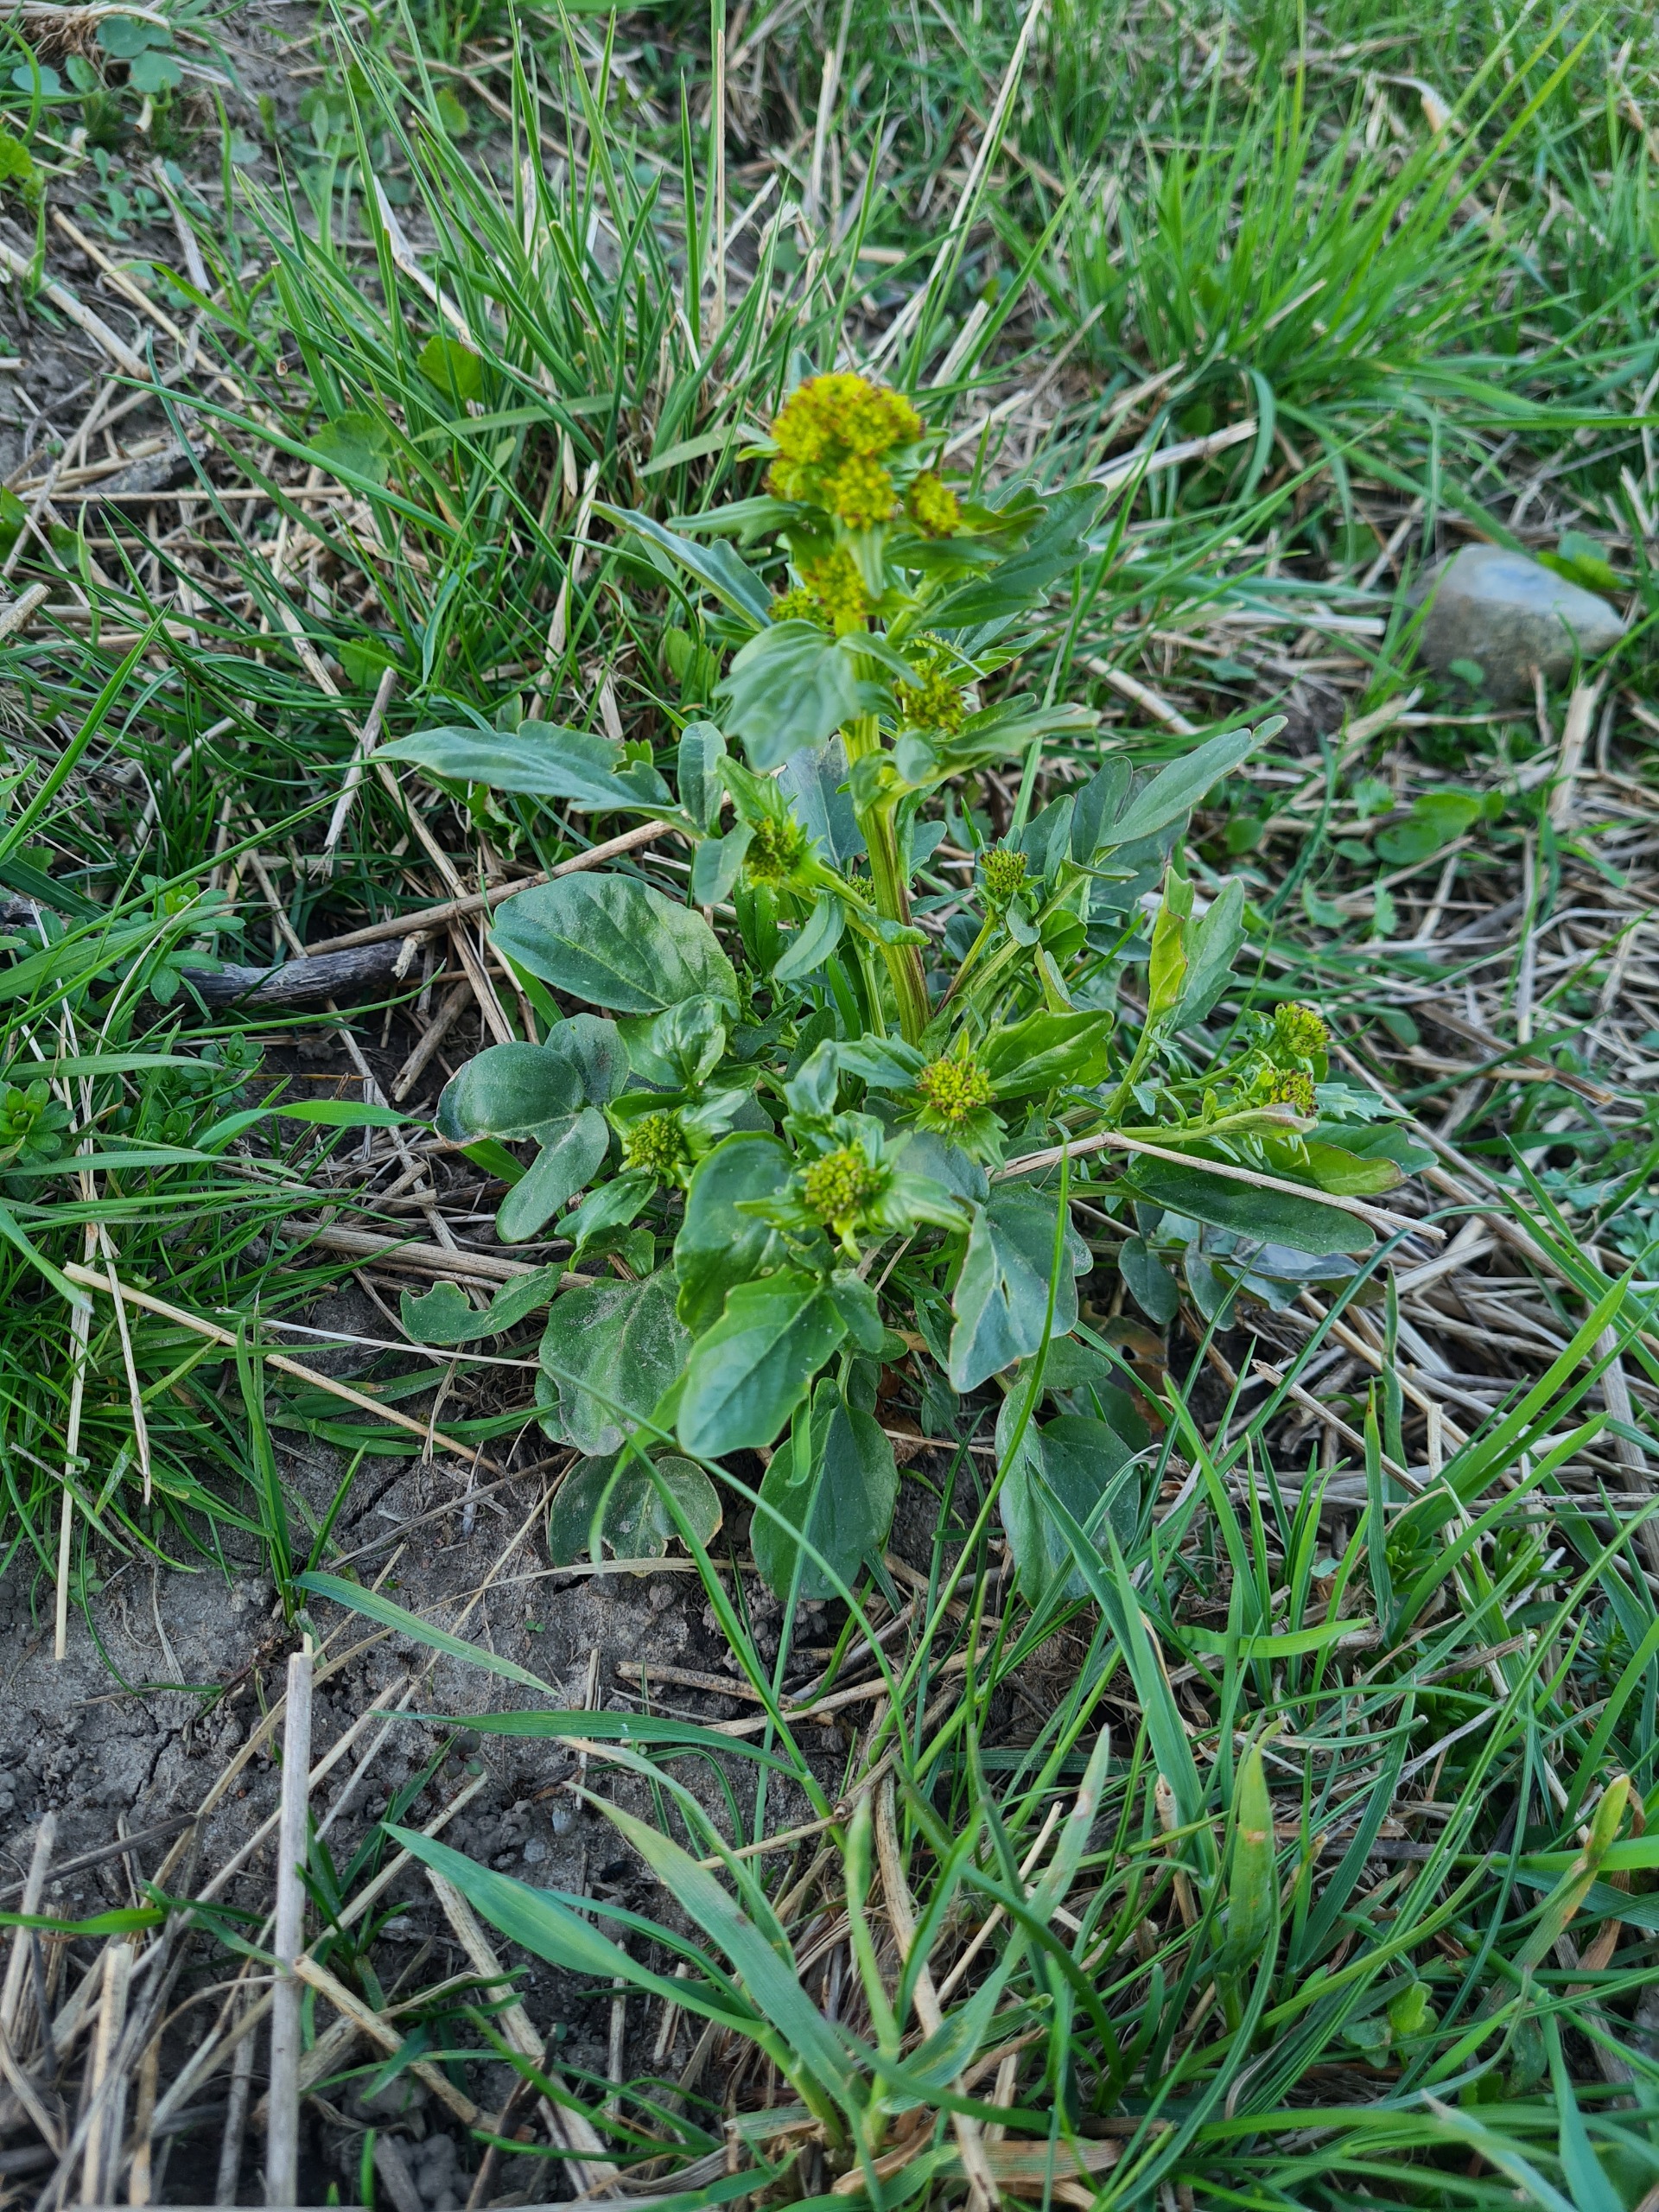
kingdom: Plantae
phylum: Tracheophyta
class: Magnoliopsida
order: Brassicales
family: Brassicaceae
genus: Barbarea
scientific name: Barbarea vulgaris
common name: Almindelig vinterkarse
